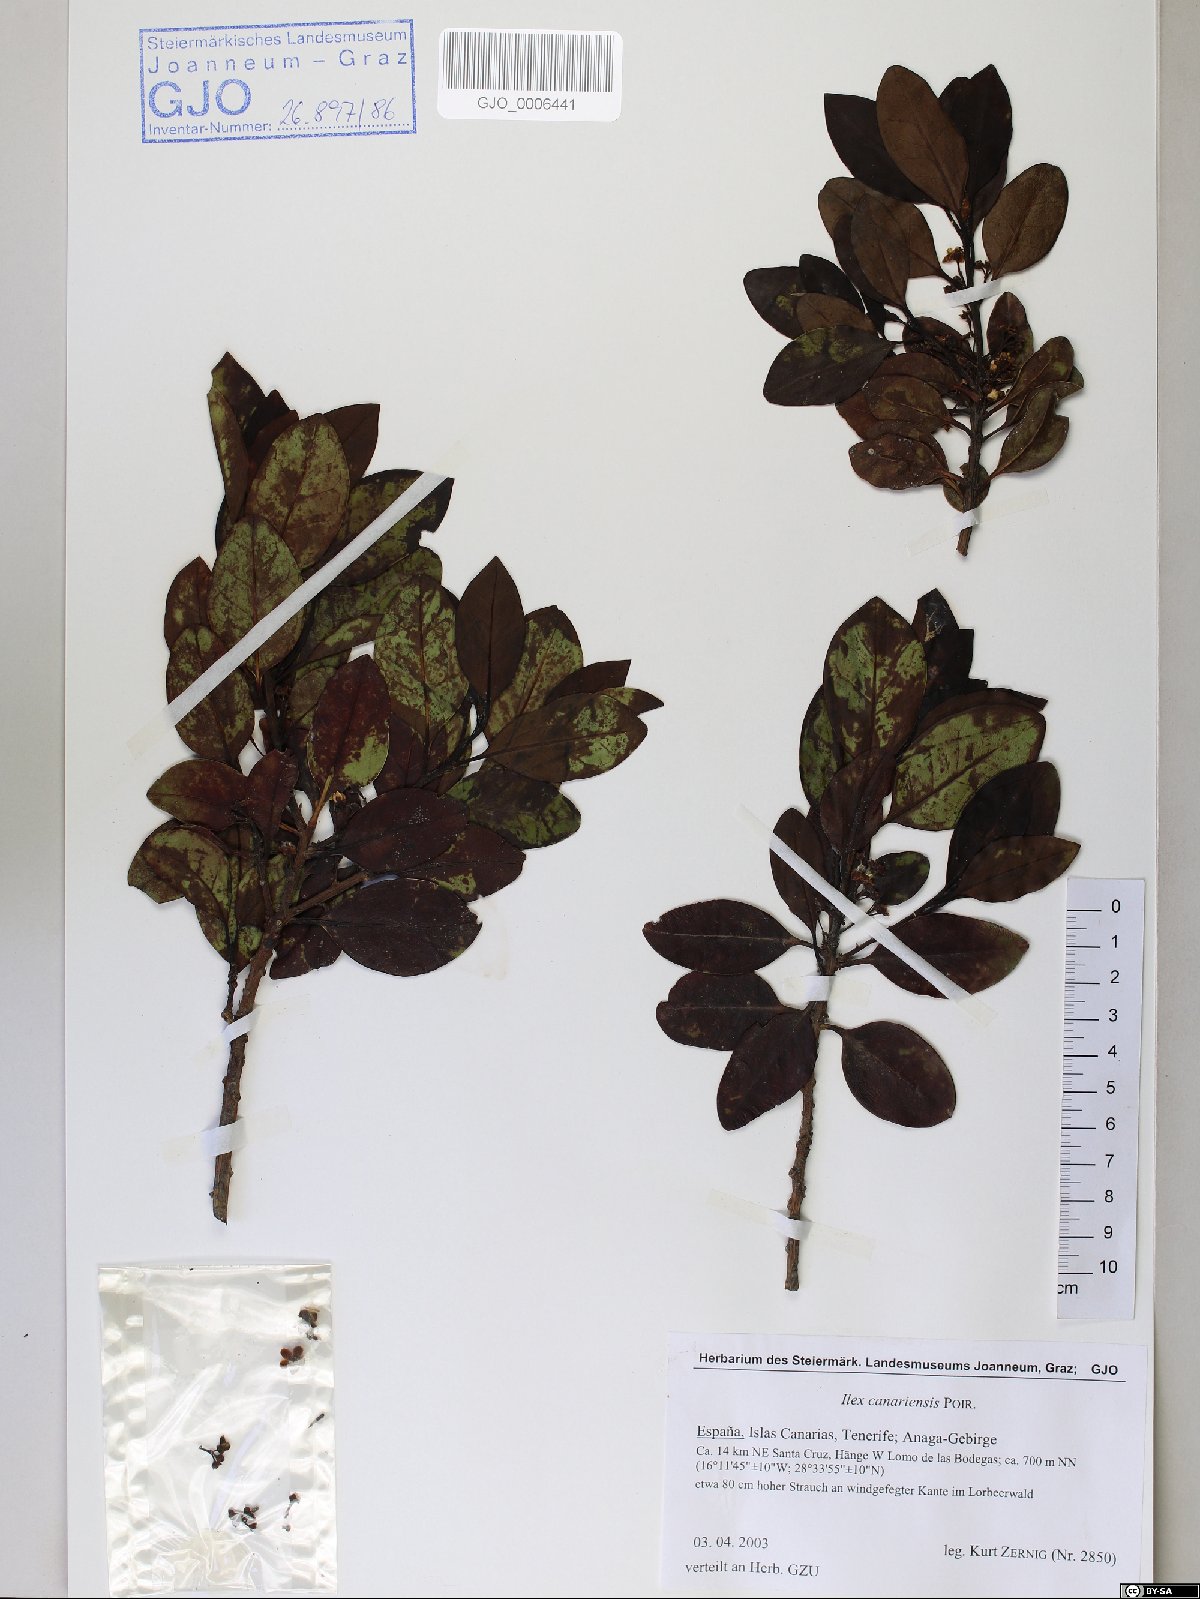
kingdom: Plantae
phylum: Tracheophyta
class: Magnoliopsida
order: Aquifoliales
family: Aquifoliaceae
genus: Ilex
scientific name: Ilex canariensis
